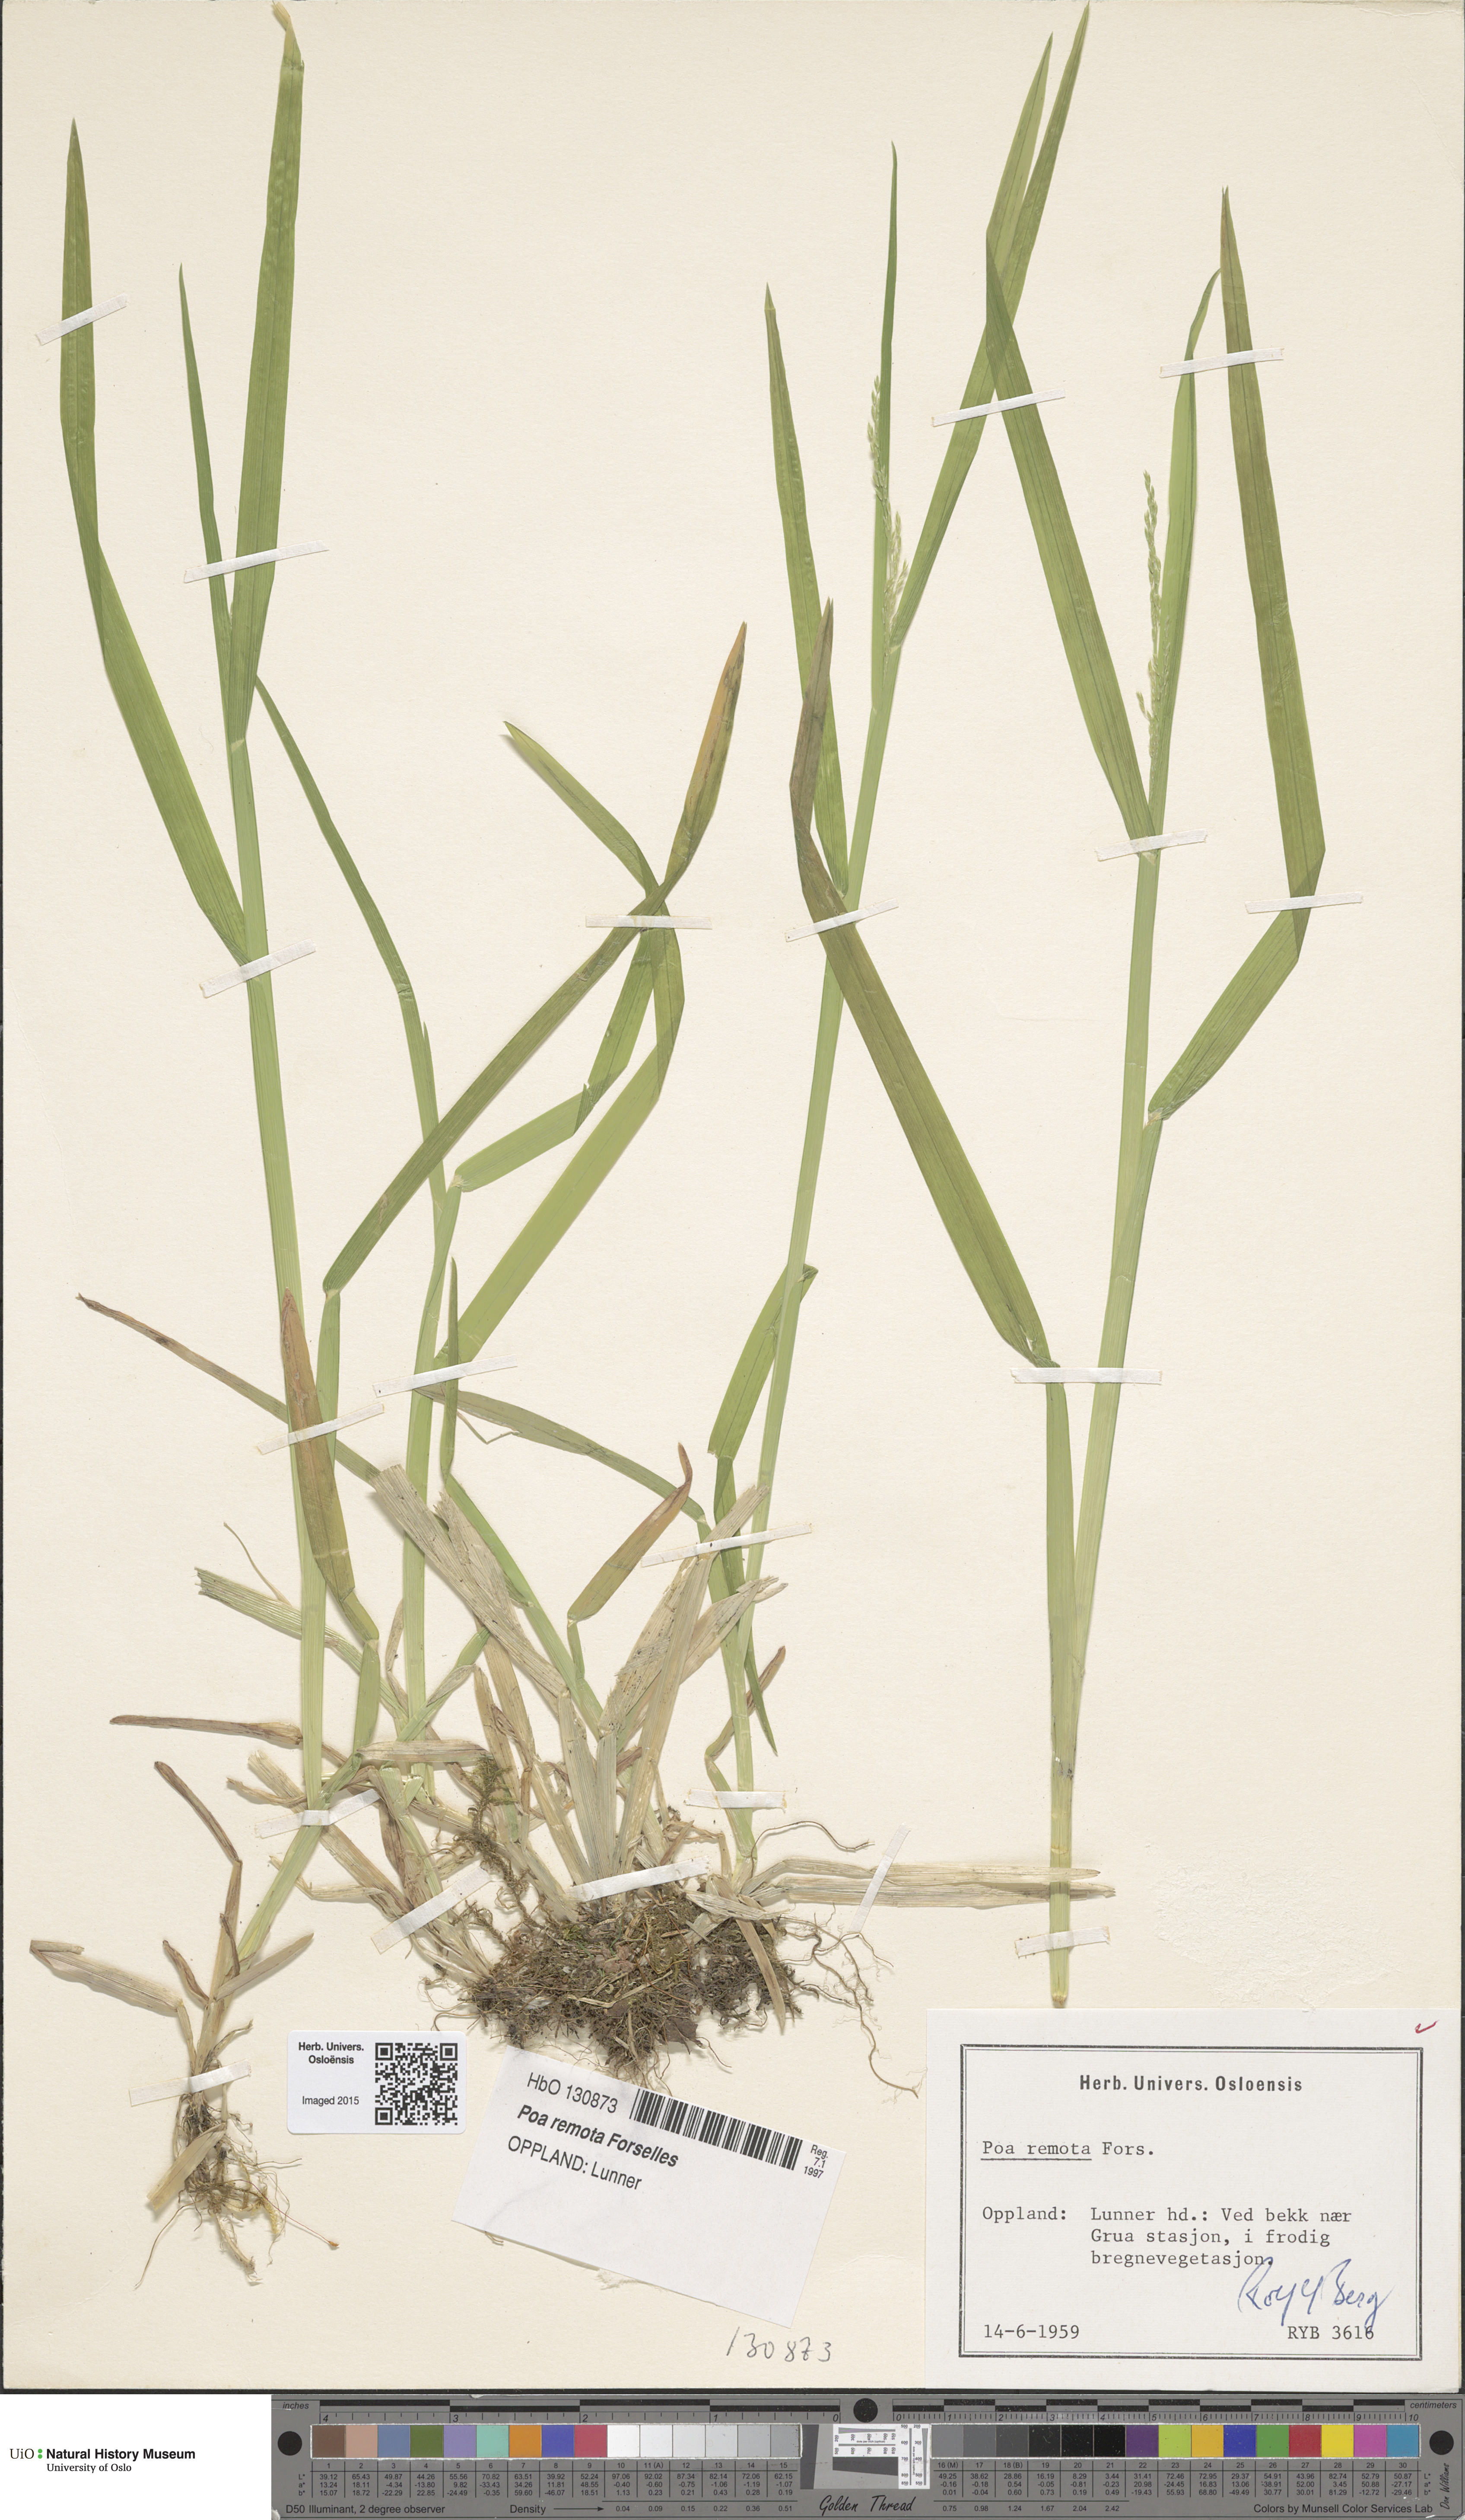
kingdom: Plantae
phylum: Tracheophyta
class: Liliopsida
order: Poales
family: Poaceae
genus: Poa
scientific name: Poa remota
